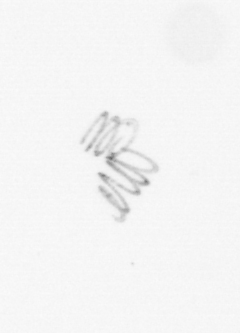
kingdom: Chromista
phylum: Ochrophyta
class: Bacillariophyceae
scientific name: Bacillariophyceae
